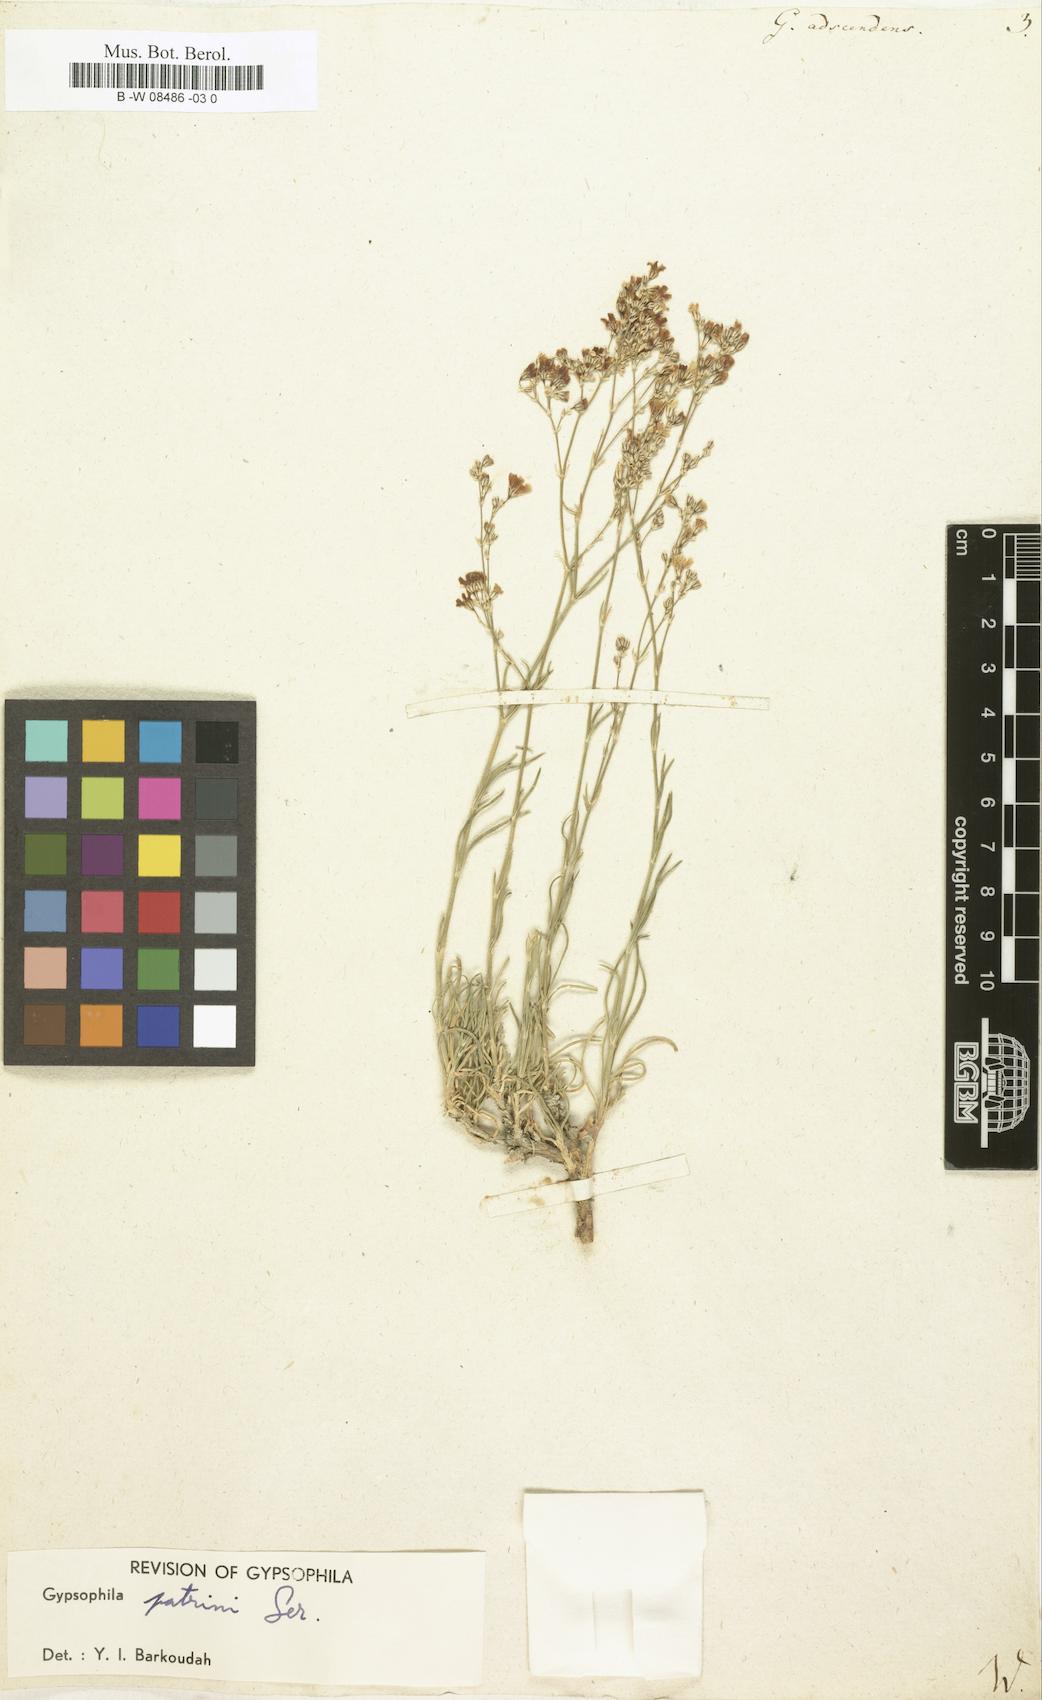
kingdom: Plantae
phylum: Tracheophyta
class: Magnoliopsida
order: Caryophyllales
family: Caryophyllaceae
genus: Gypsophila
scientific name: Gypsophila repens
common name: Creeping baby's-breath
